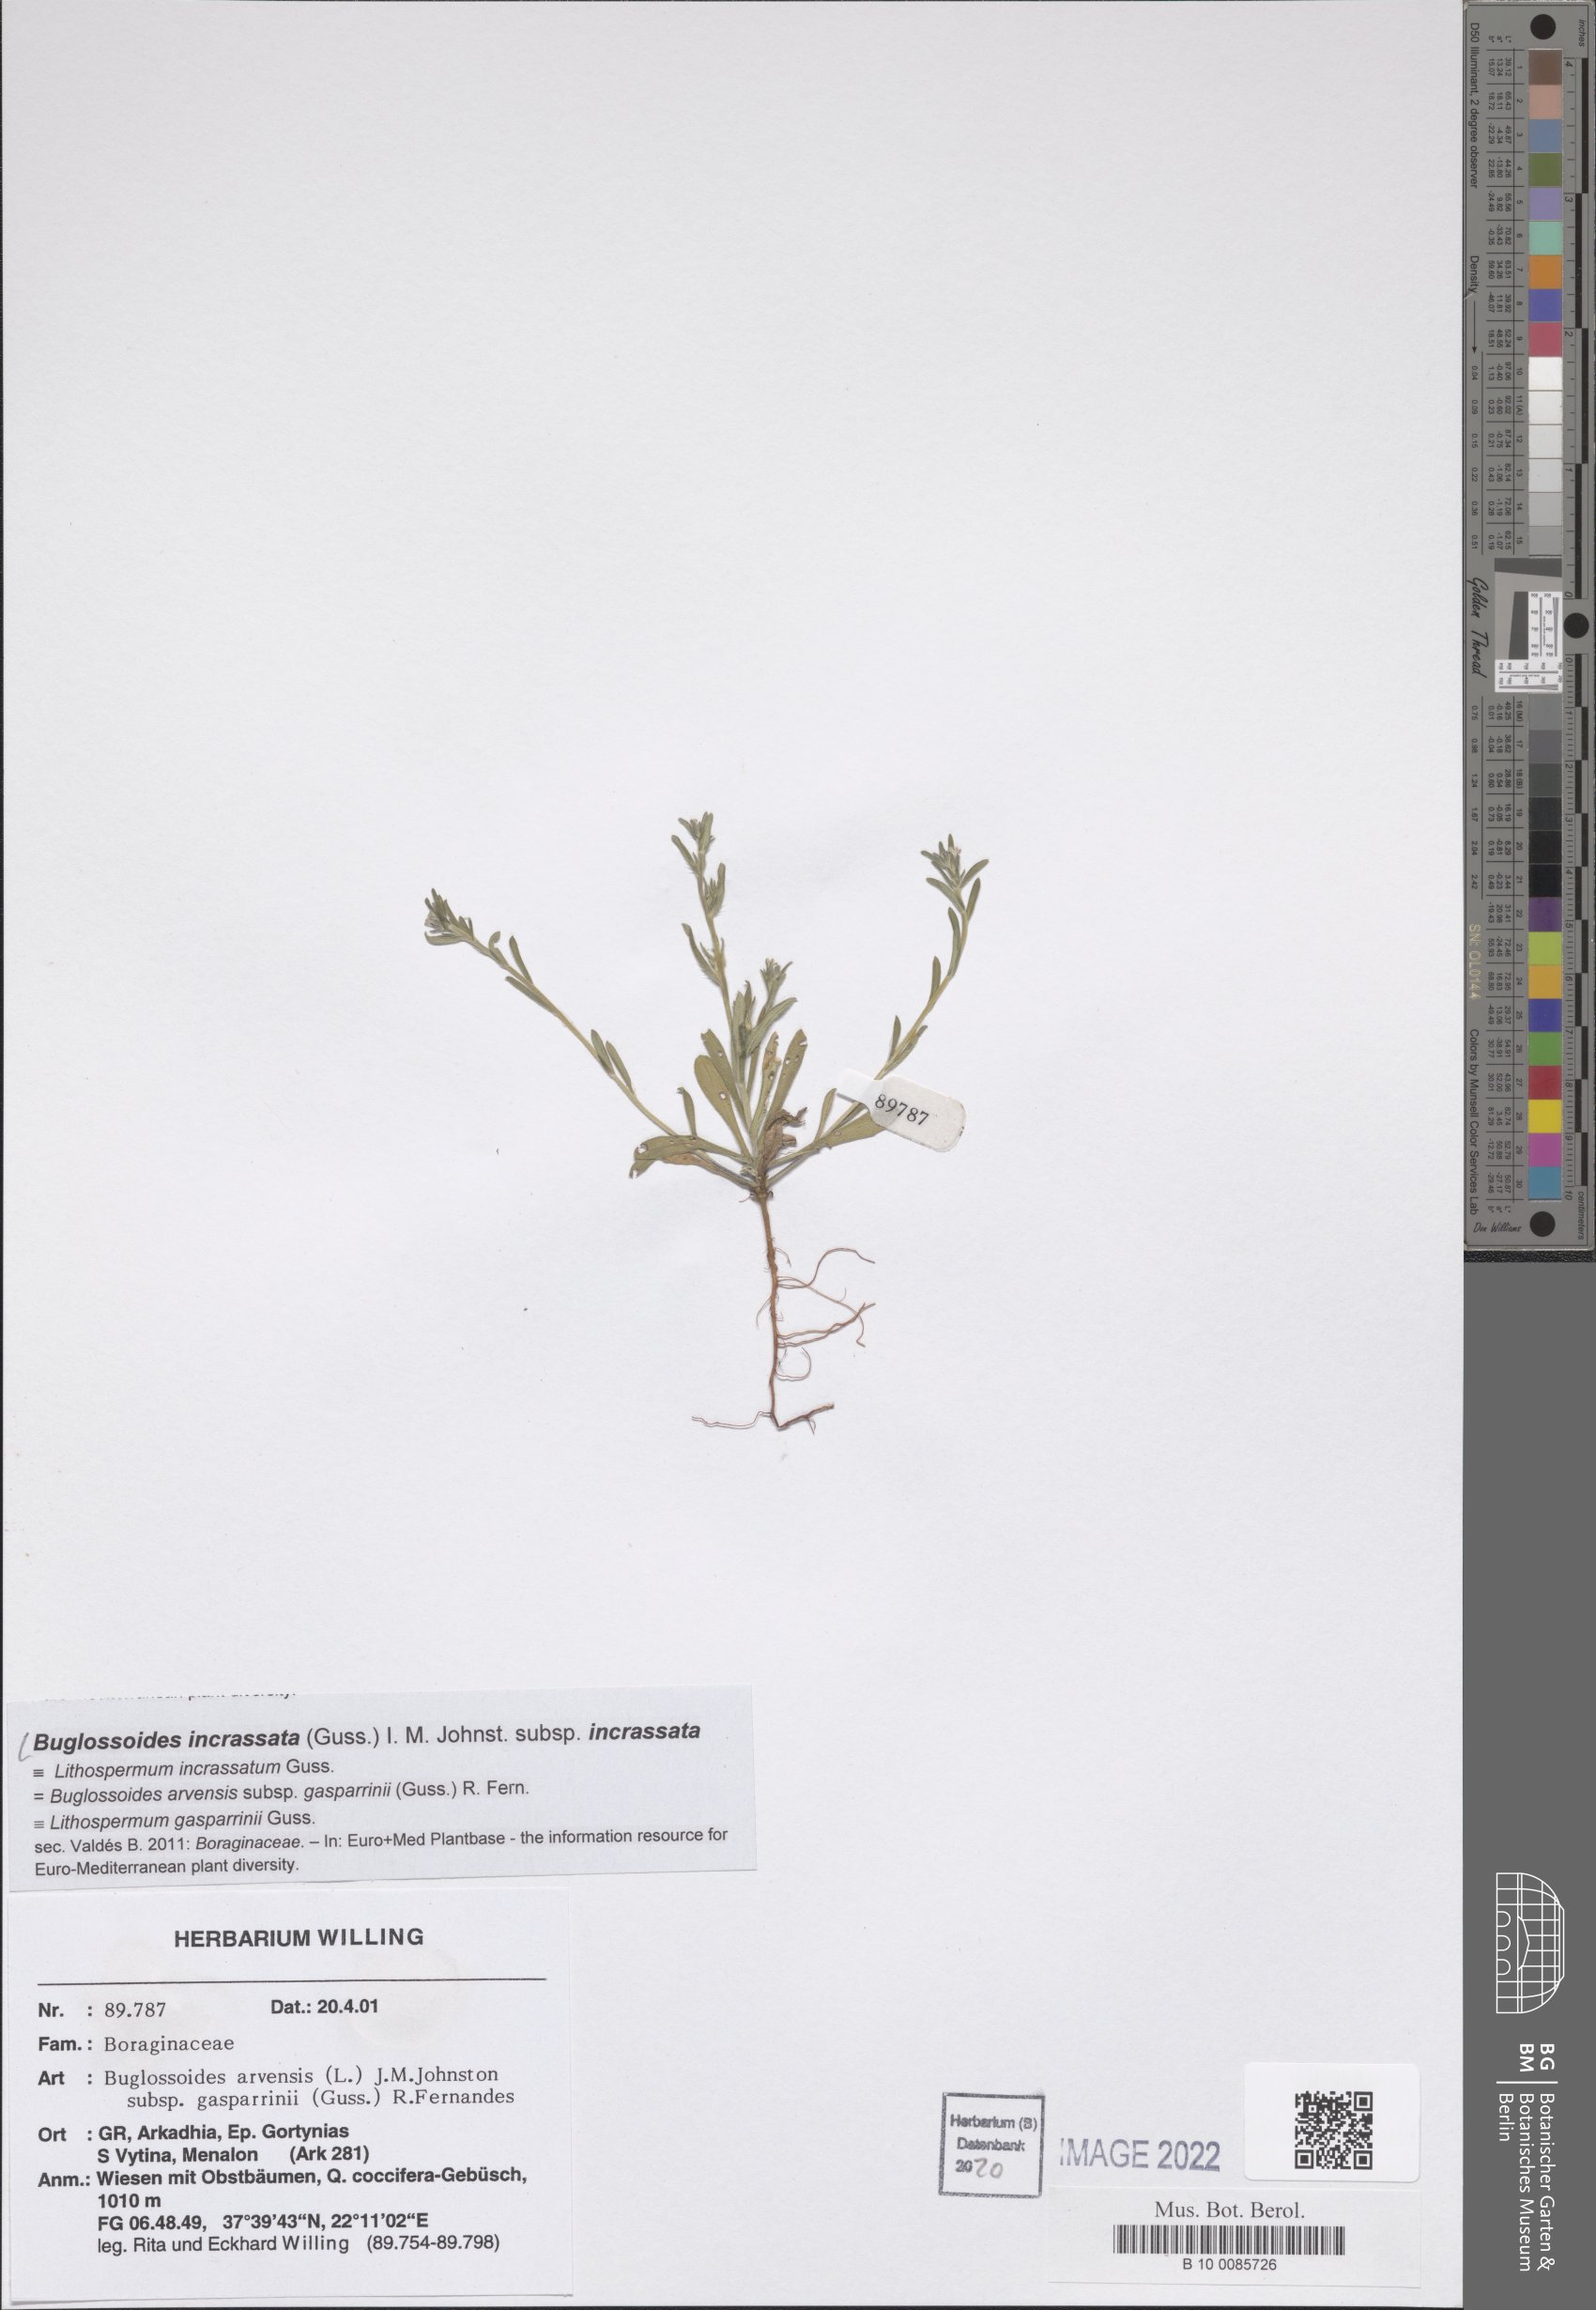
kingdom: Plantae
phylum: Tracheophyta
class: Magnoliopsida
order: Boraginales
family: Boraginaceae
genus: Buglossoides
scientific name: Buglossoides incrassata
